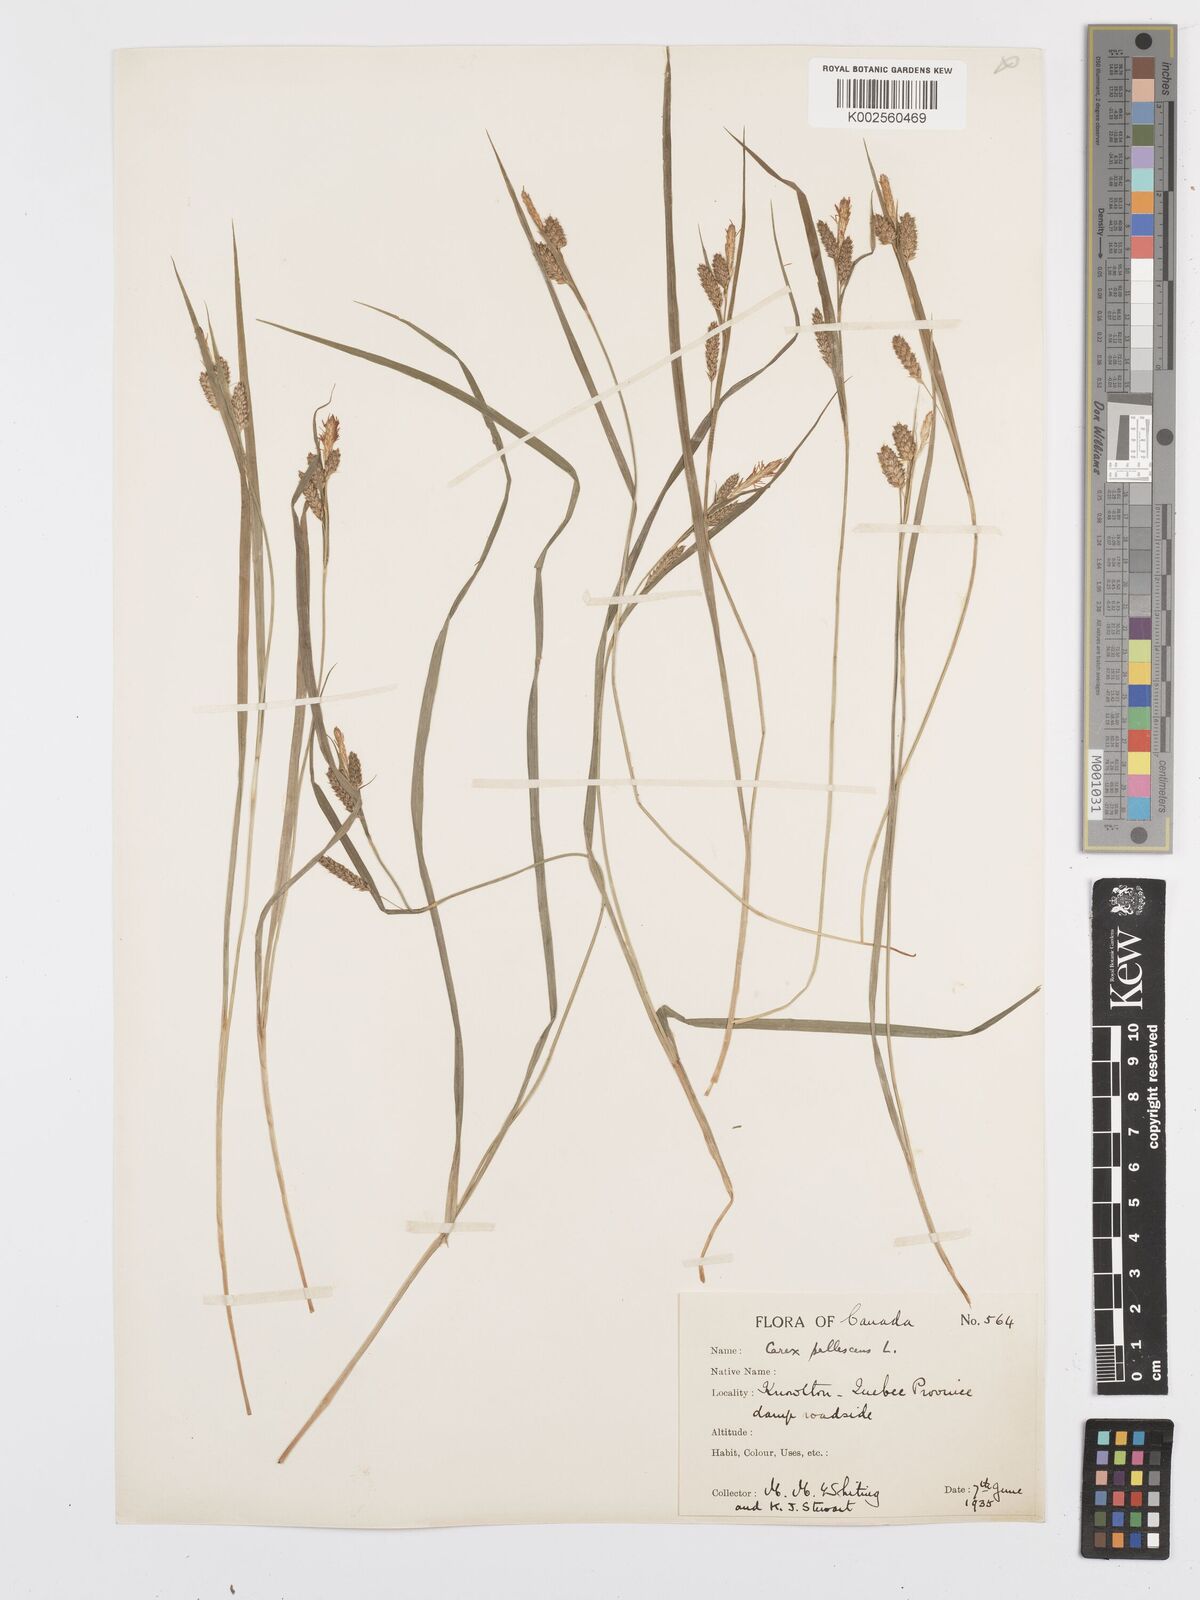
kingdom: Plantae
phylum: Tracheophyta
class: Liliopsida
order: Poales
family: Cyperaceae
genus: Carex
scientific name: Carex pallescens
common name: Pale sedge
